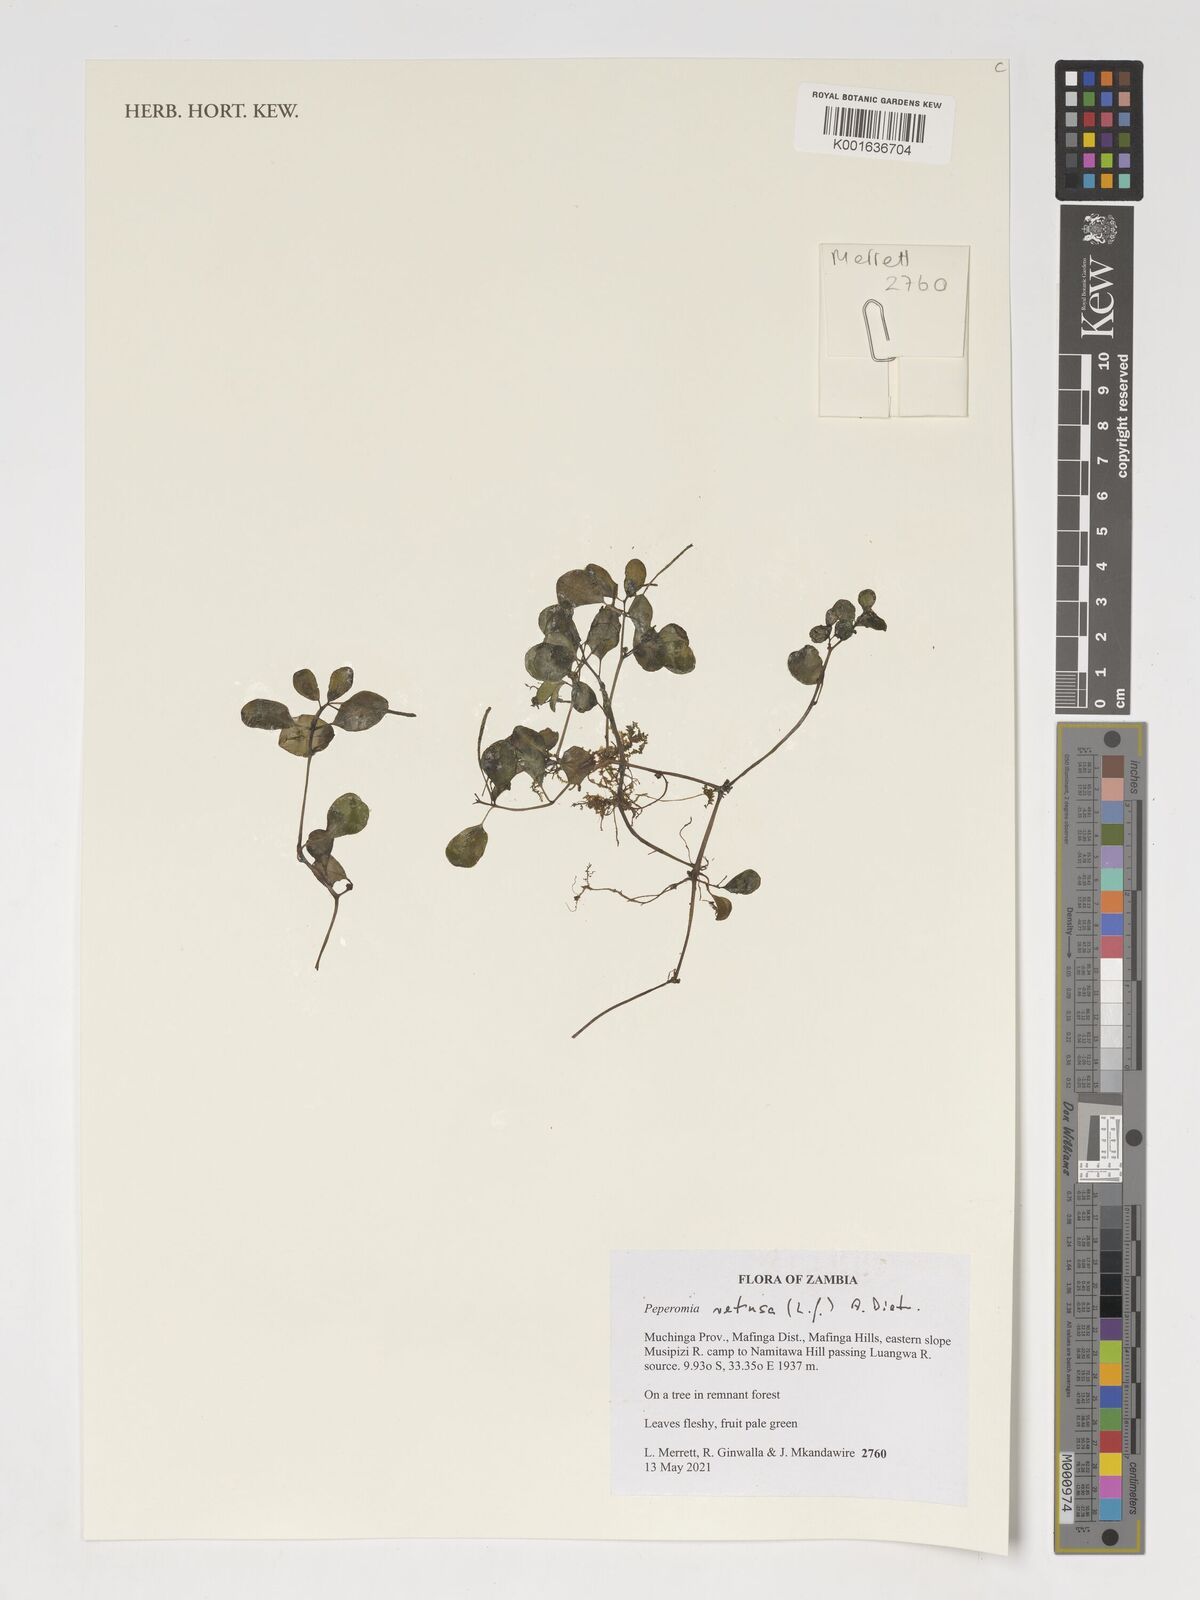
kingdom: Plantae
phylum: Tracheophyta
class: Magnoliopsida
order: Piperales
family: Piperaceae
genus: Peperomia
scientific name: Peperomia retusa
